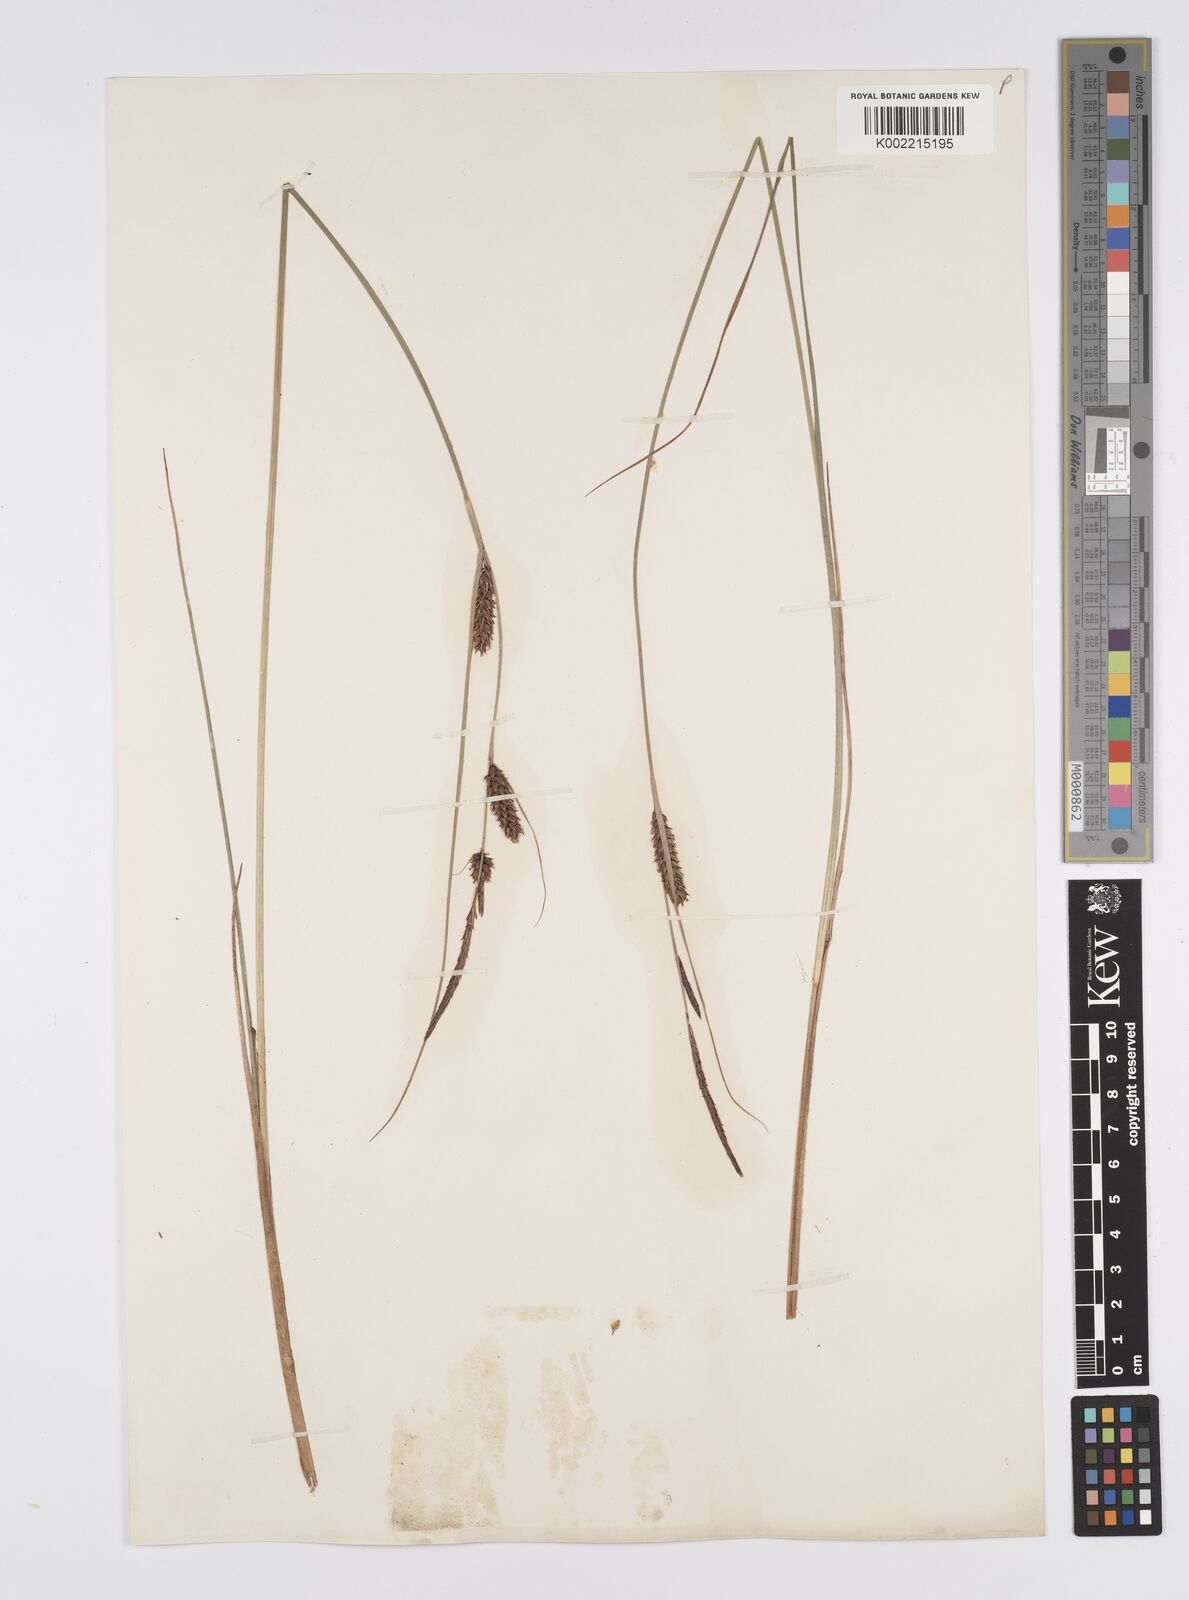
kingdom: Plantae
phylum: Tracheophyta
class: Liliopsida
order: Poales
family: Cyperaceae
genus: Carex
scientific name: Carex lasiocarpa
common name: Slender sedge
